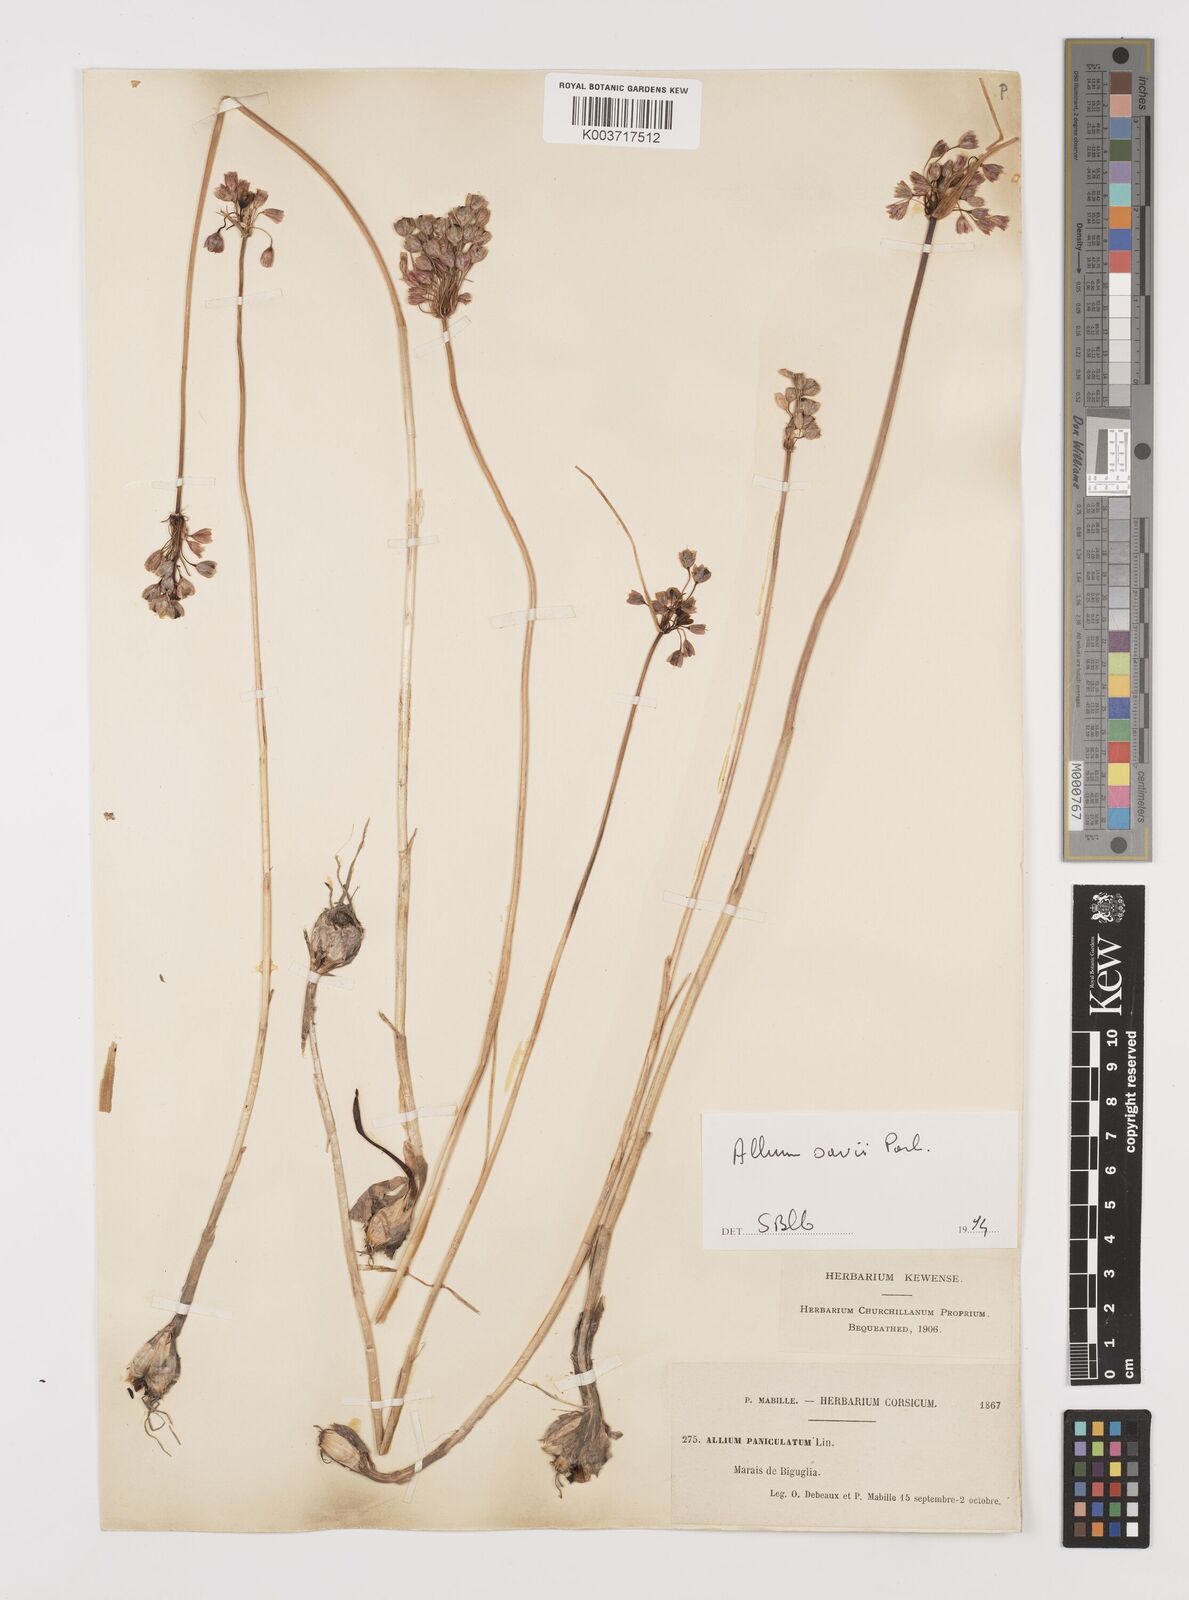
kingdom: Plantae
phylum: Tracheophyta
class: Liliopsida
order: Asparagales
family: Amaryllidaceae
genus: Allium
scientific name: Allium savii
